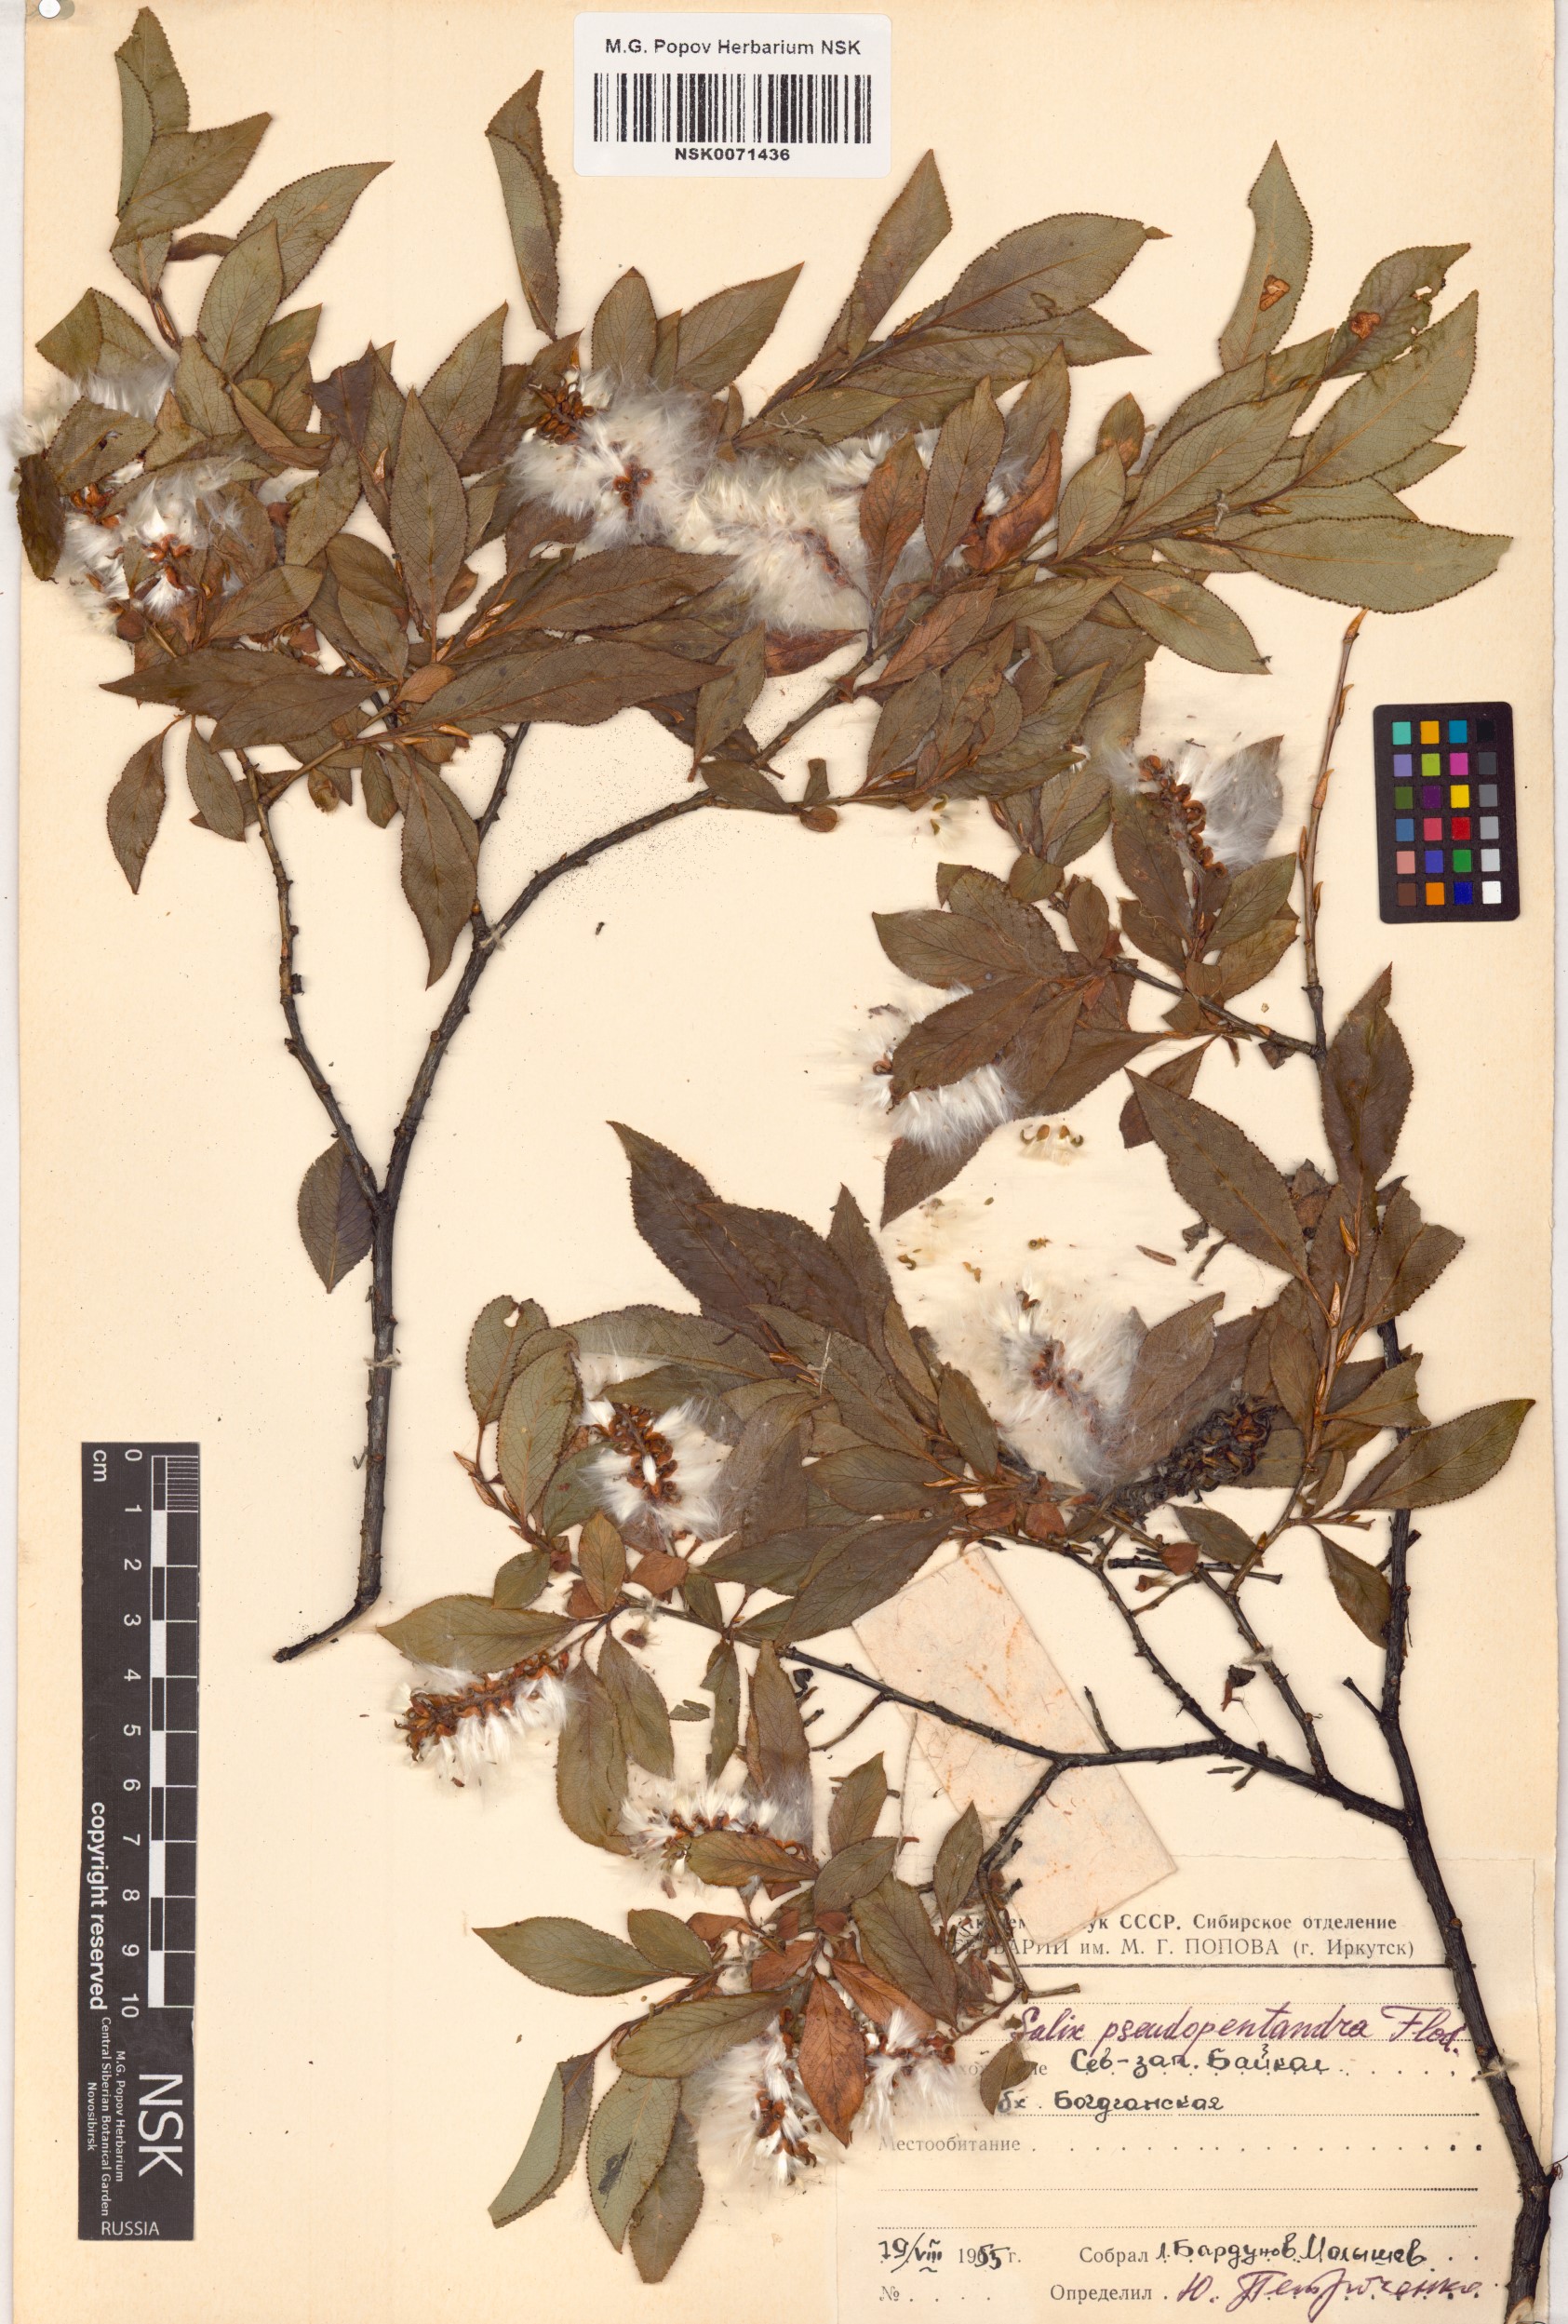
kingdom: Plantae
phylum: Tracheophyta
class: Magnoliopsida
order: Malpighiales
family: Salicaceae
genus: Salix
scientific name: Salix pseudopentandra
